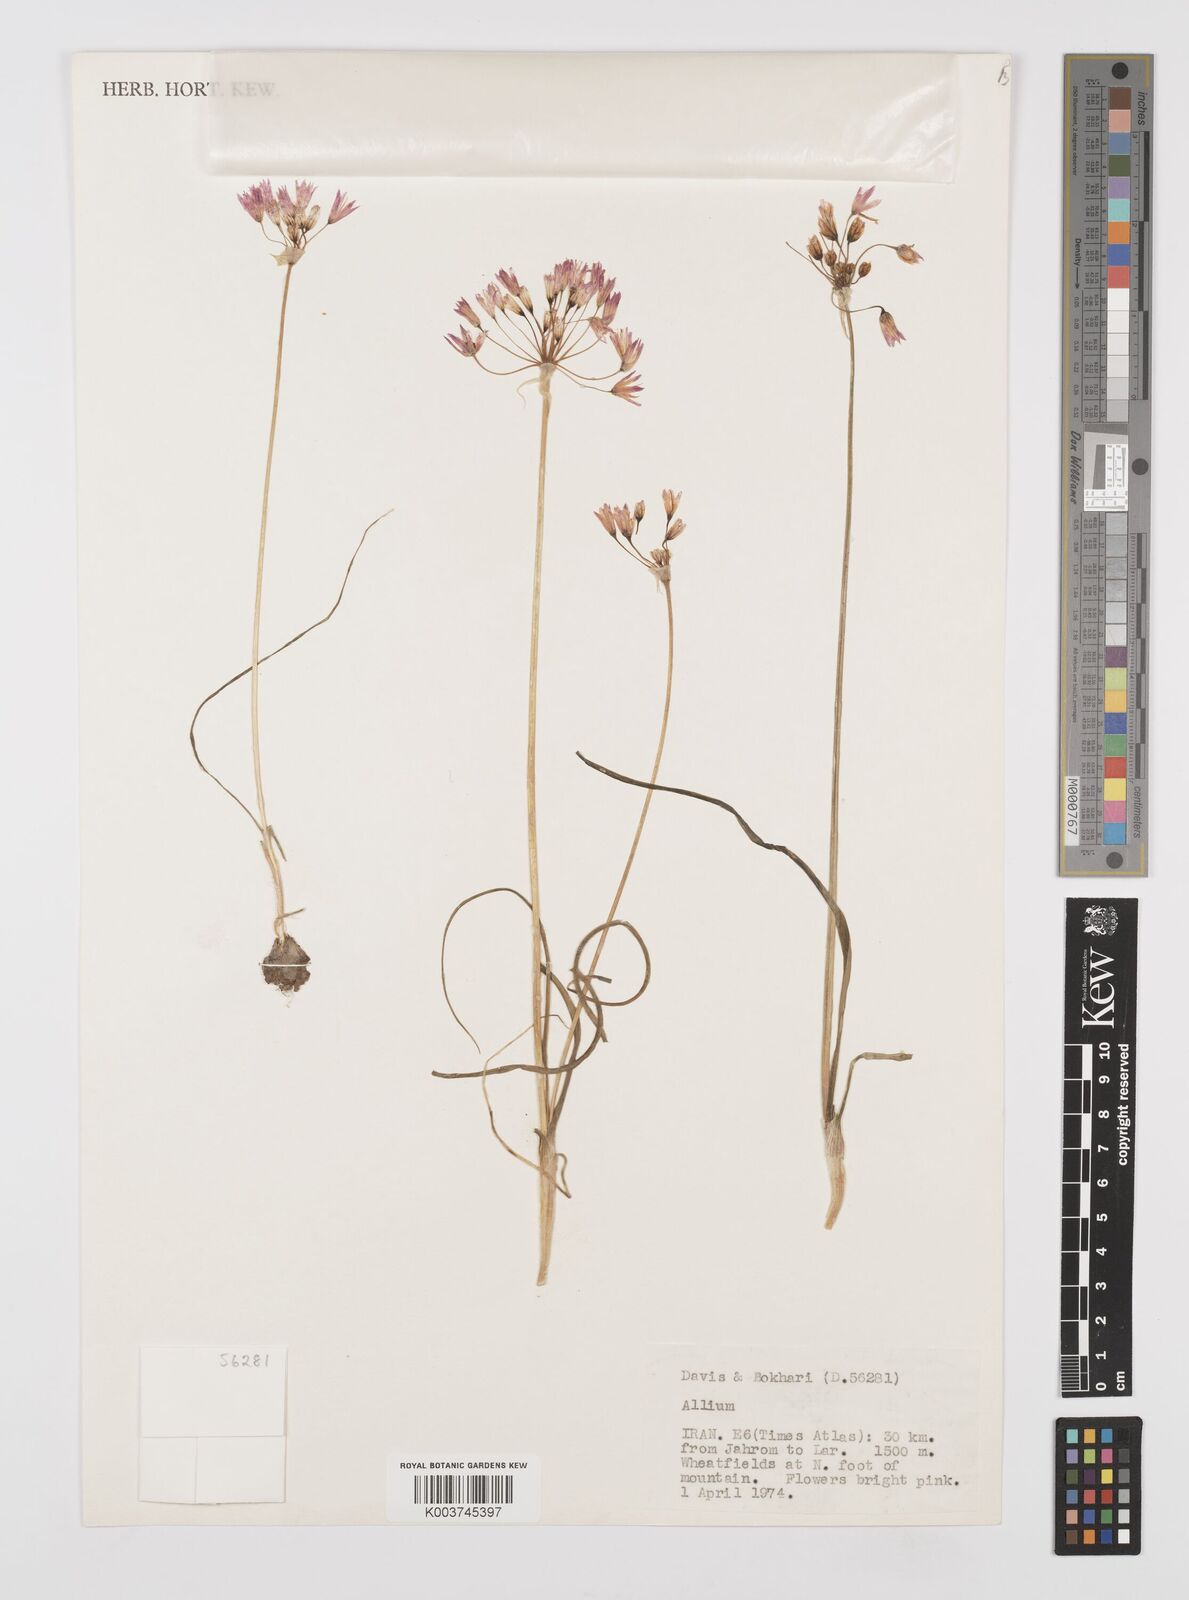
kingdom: Plantae
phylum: Tracheophyta
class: Liliopsida
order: Asparagales
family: Amaryllidaceae
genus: Allium
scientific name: Allium
